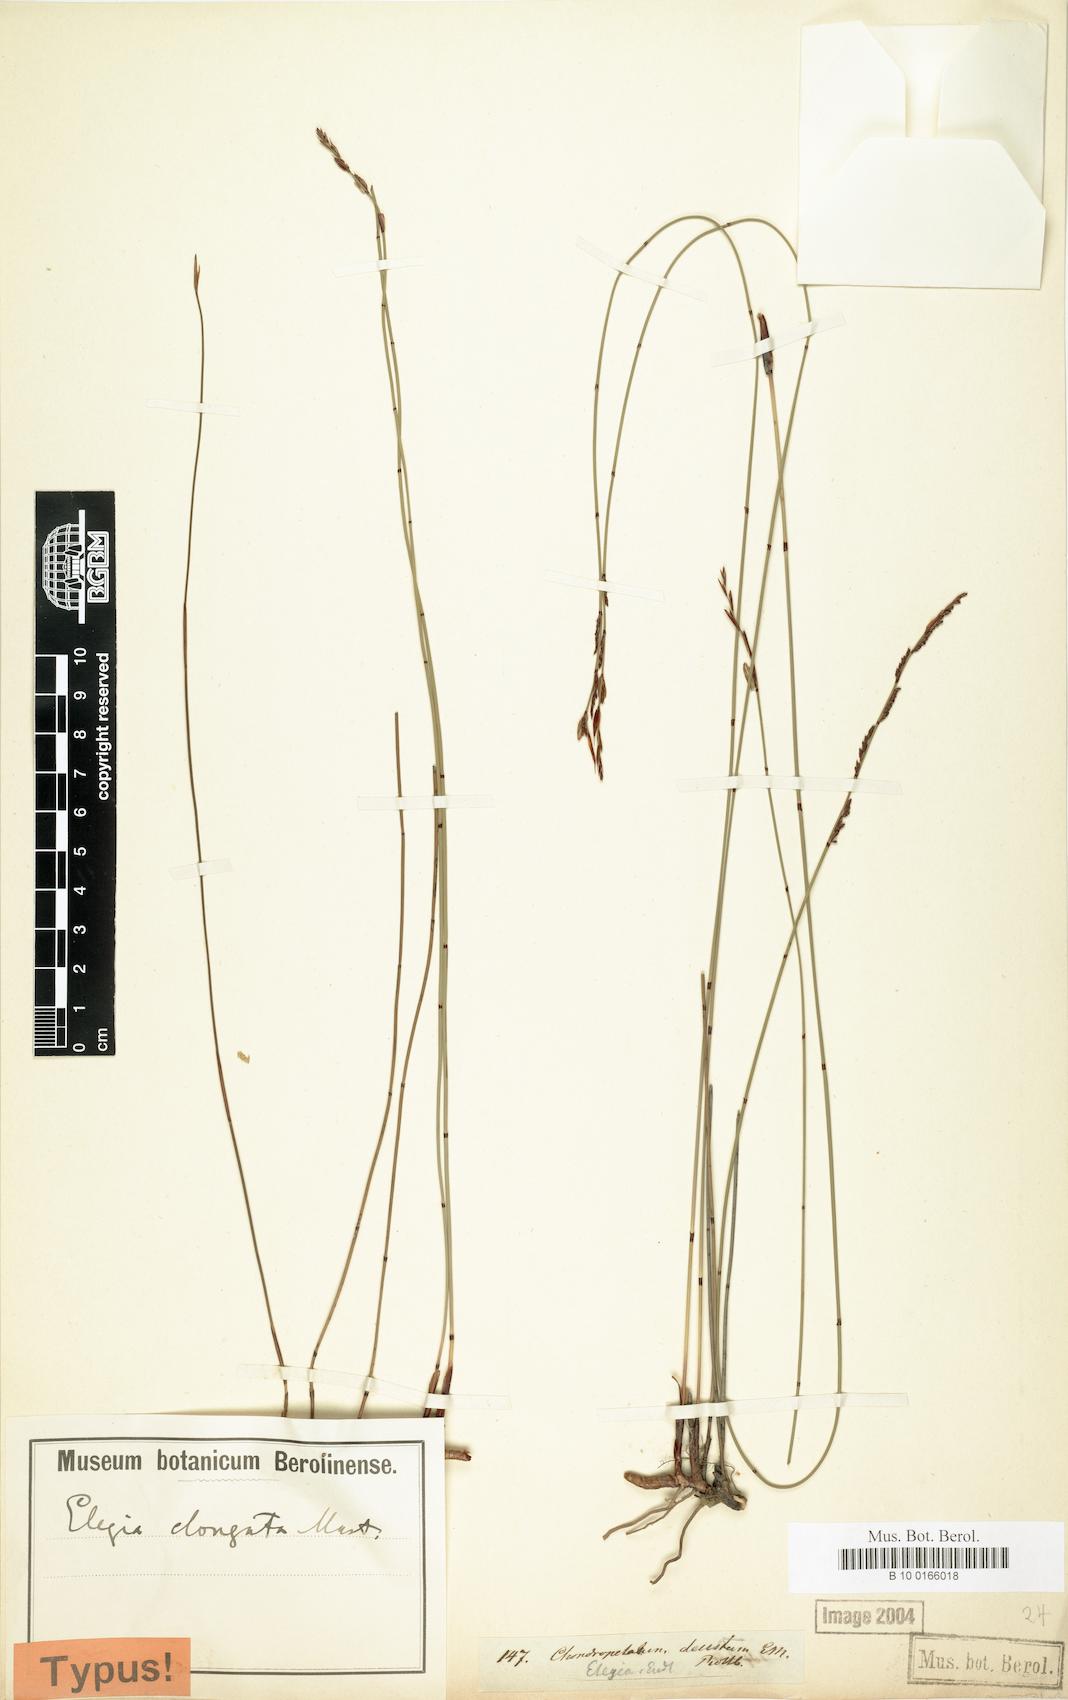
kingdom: Plantae
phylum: Tracheophyta
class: Liliopsida
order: Poales
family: Restionaceae
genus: Elegia
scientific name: Elegia nuda
